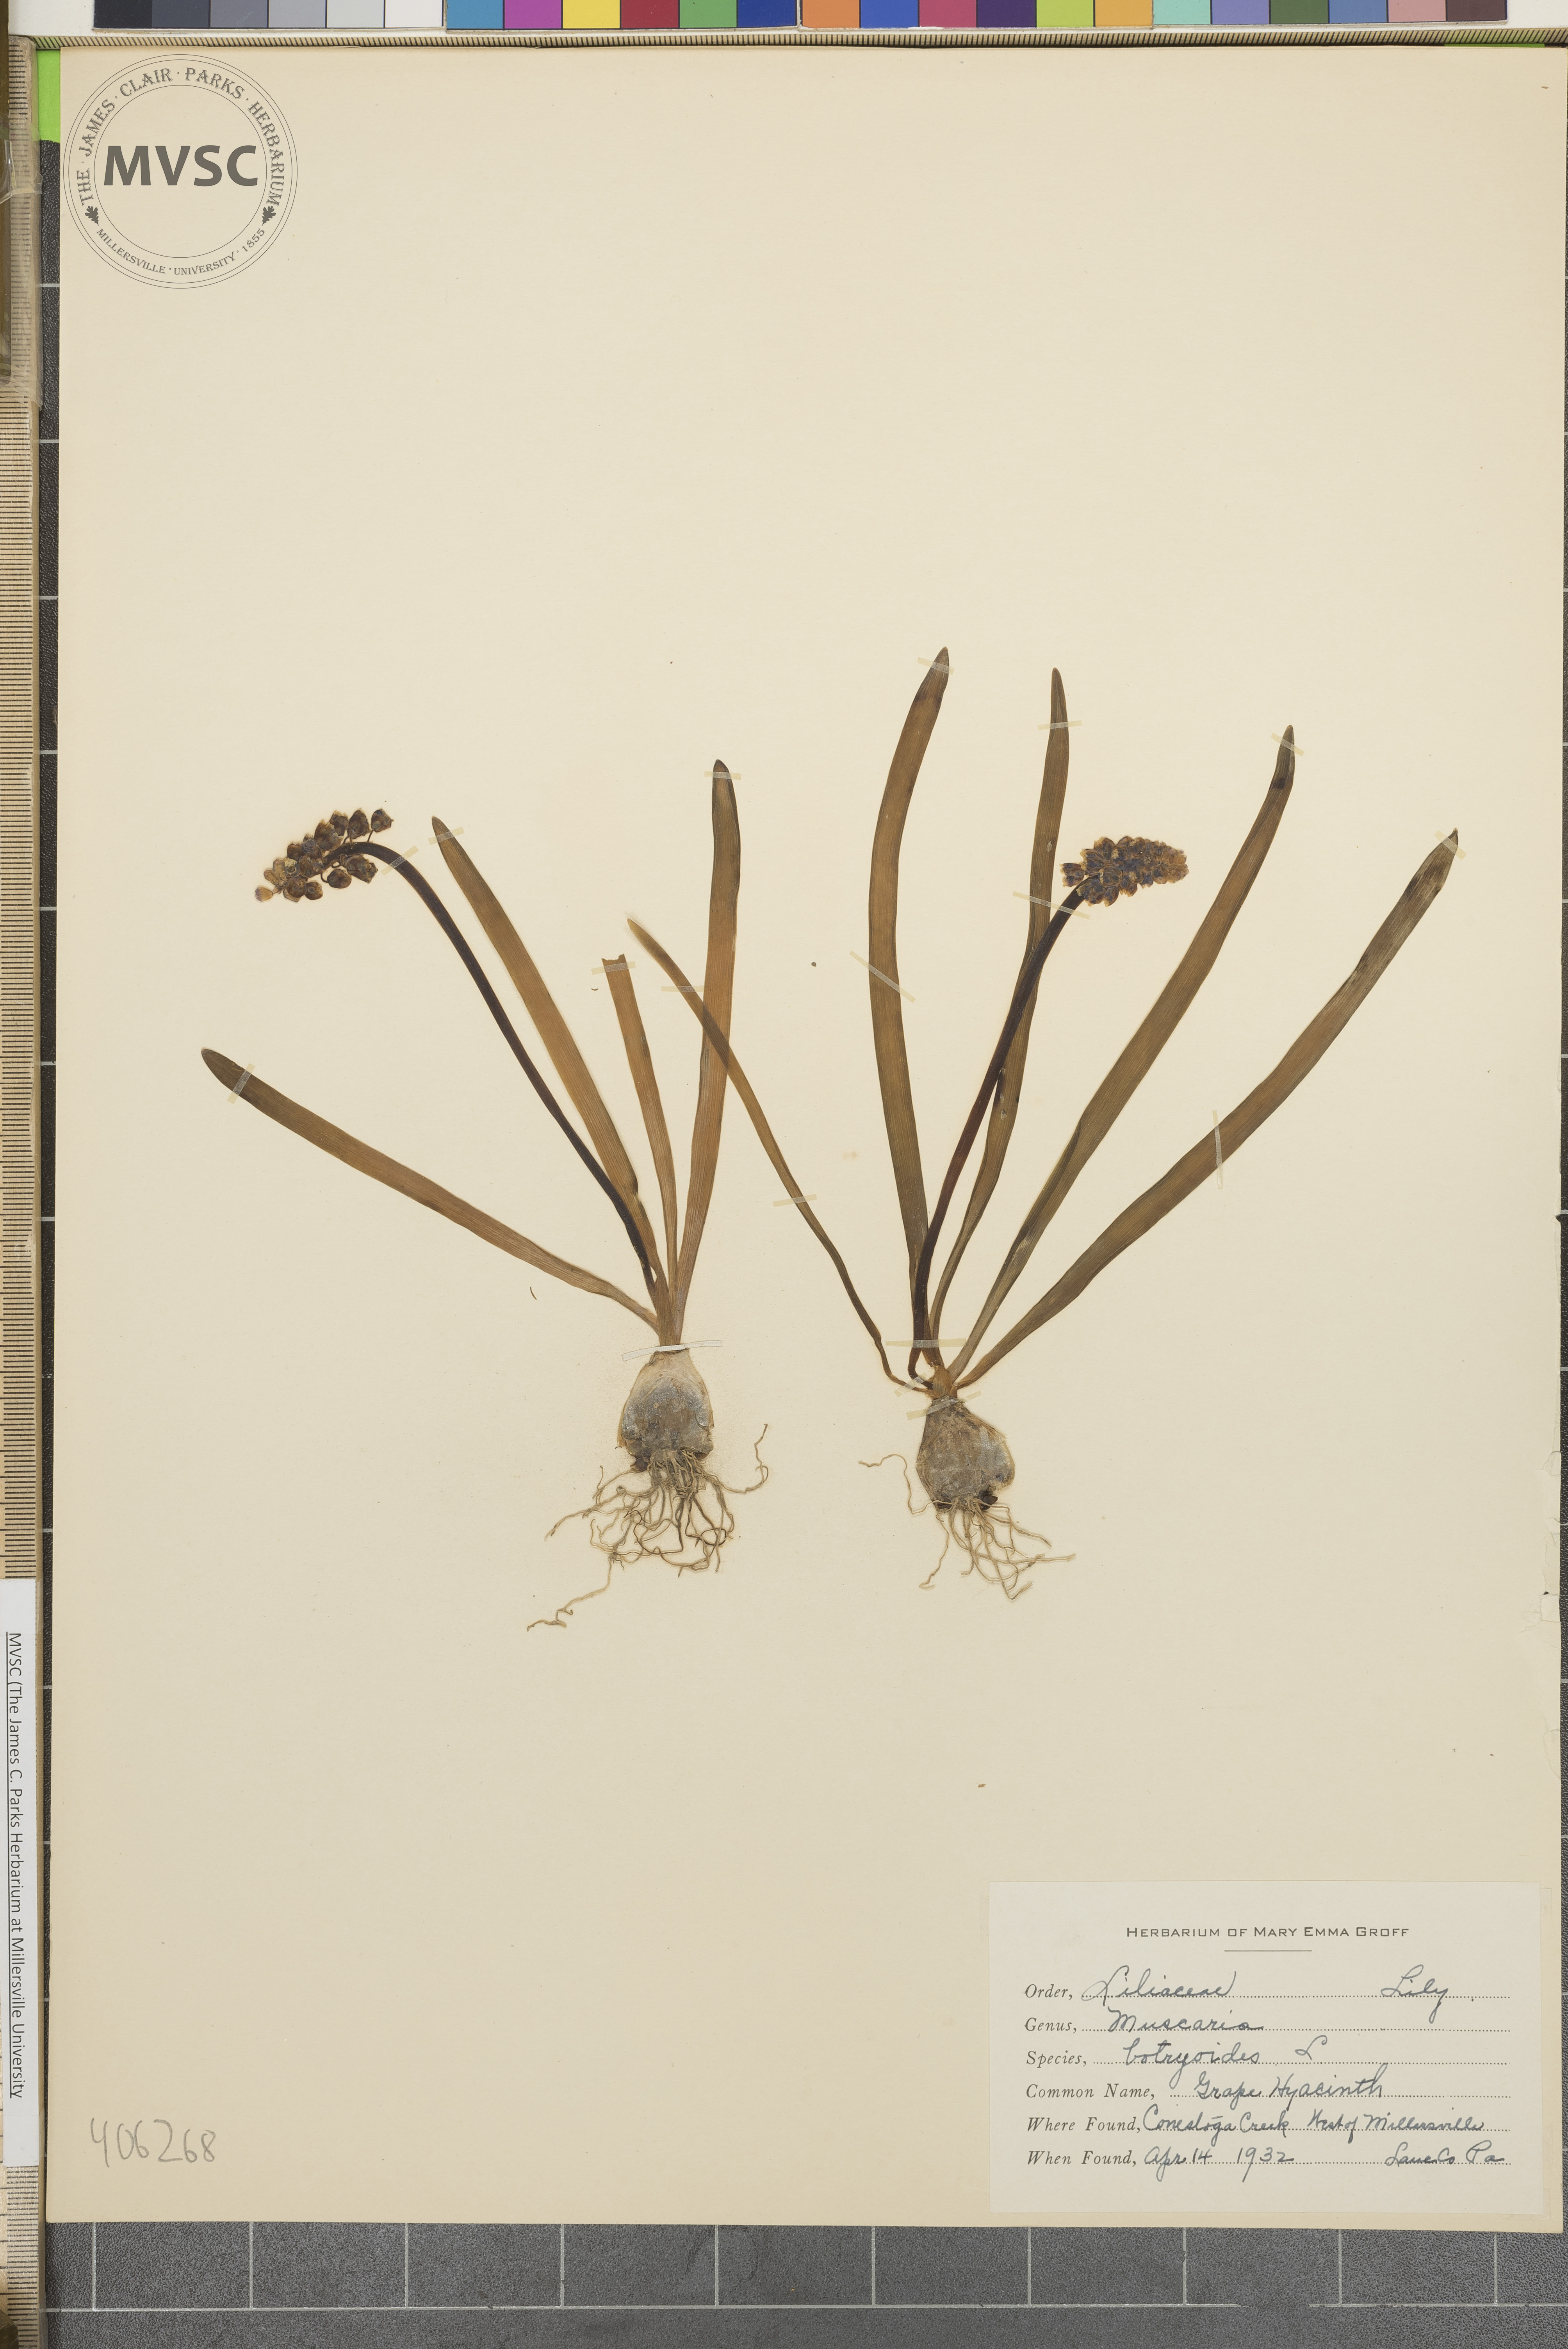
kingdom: Plantae
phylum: Tracheophyta
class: Liliopsida
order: Asparagales
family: Asparagaceae
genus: Muscari
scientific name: Muscari botryoides
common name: grape hyacinth
